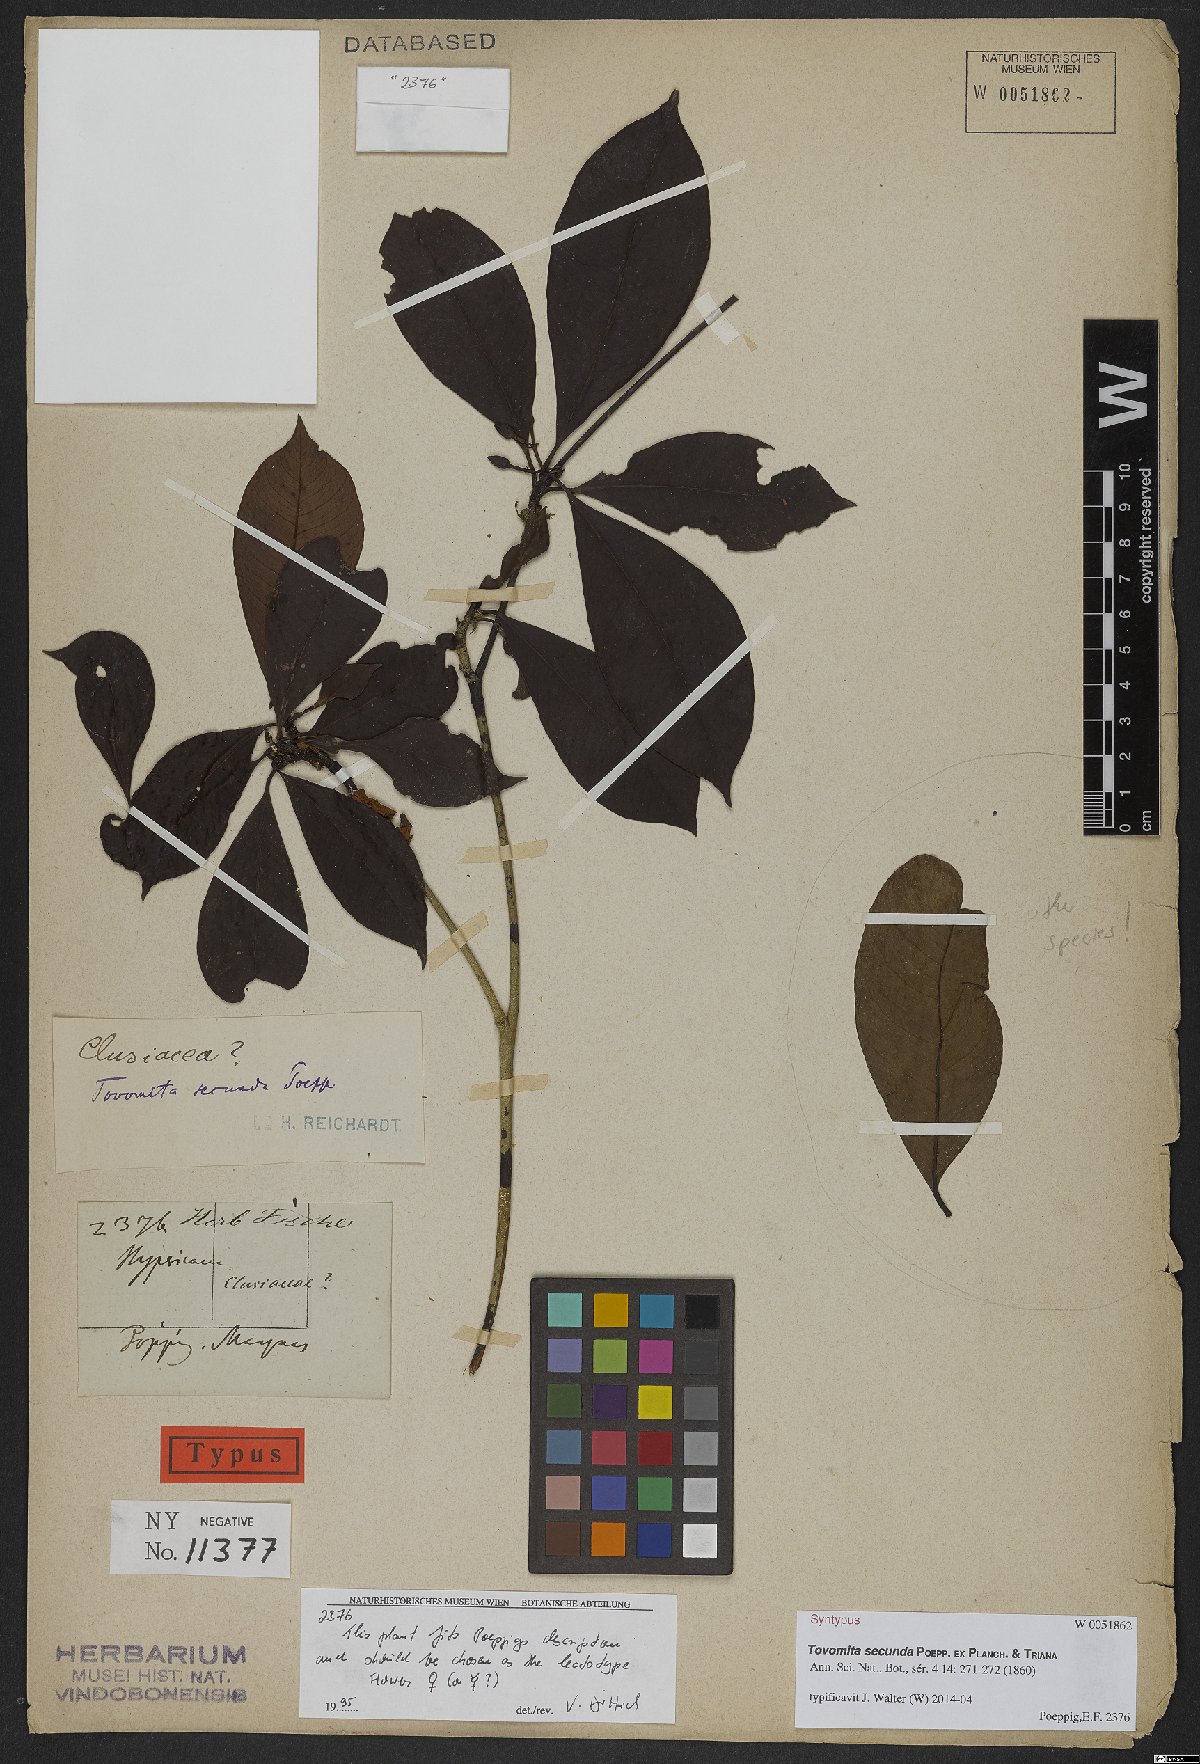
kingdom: Plantae
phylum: Tracheophyta
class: Magnoliopsida
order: Malpighiales
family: Clusiaceae
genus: Tovomita
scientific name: Tovomita secunda
